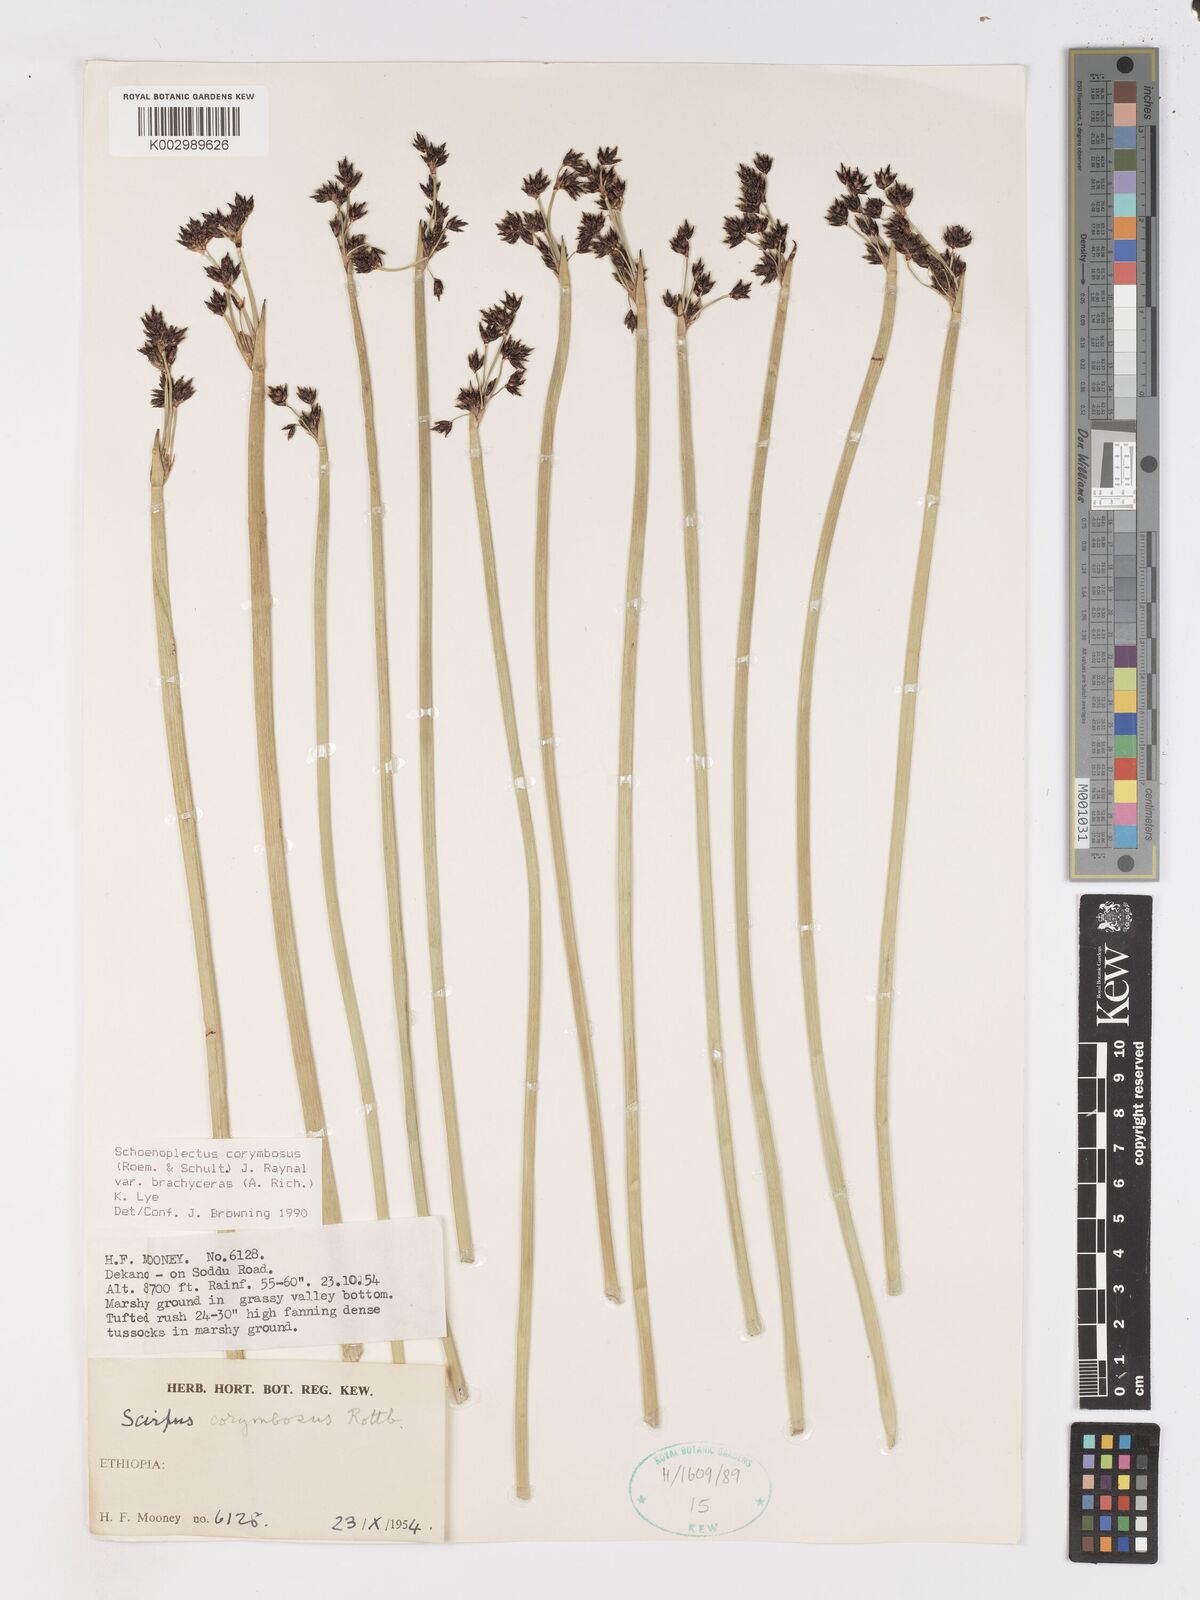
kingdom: Plantae
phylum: Tracheophyta
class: Liliopsida
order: Poales
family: Cyperaceae
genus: Schoenoplectiella
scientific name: Schoenoplectiella brachyceras
